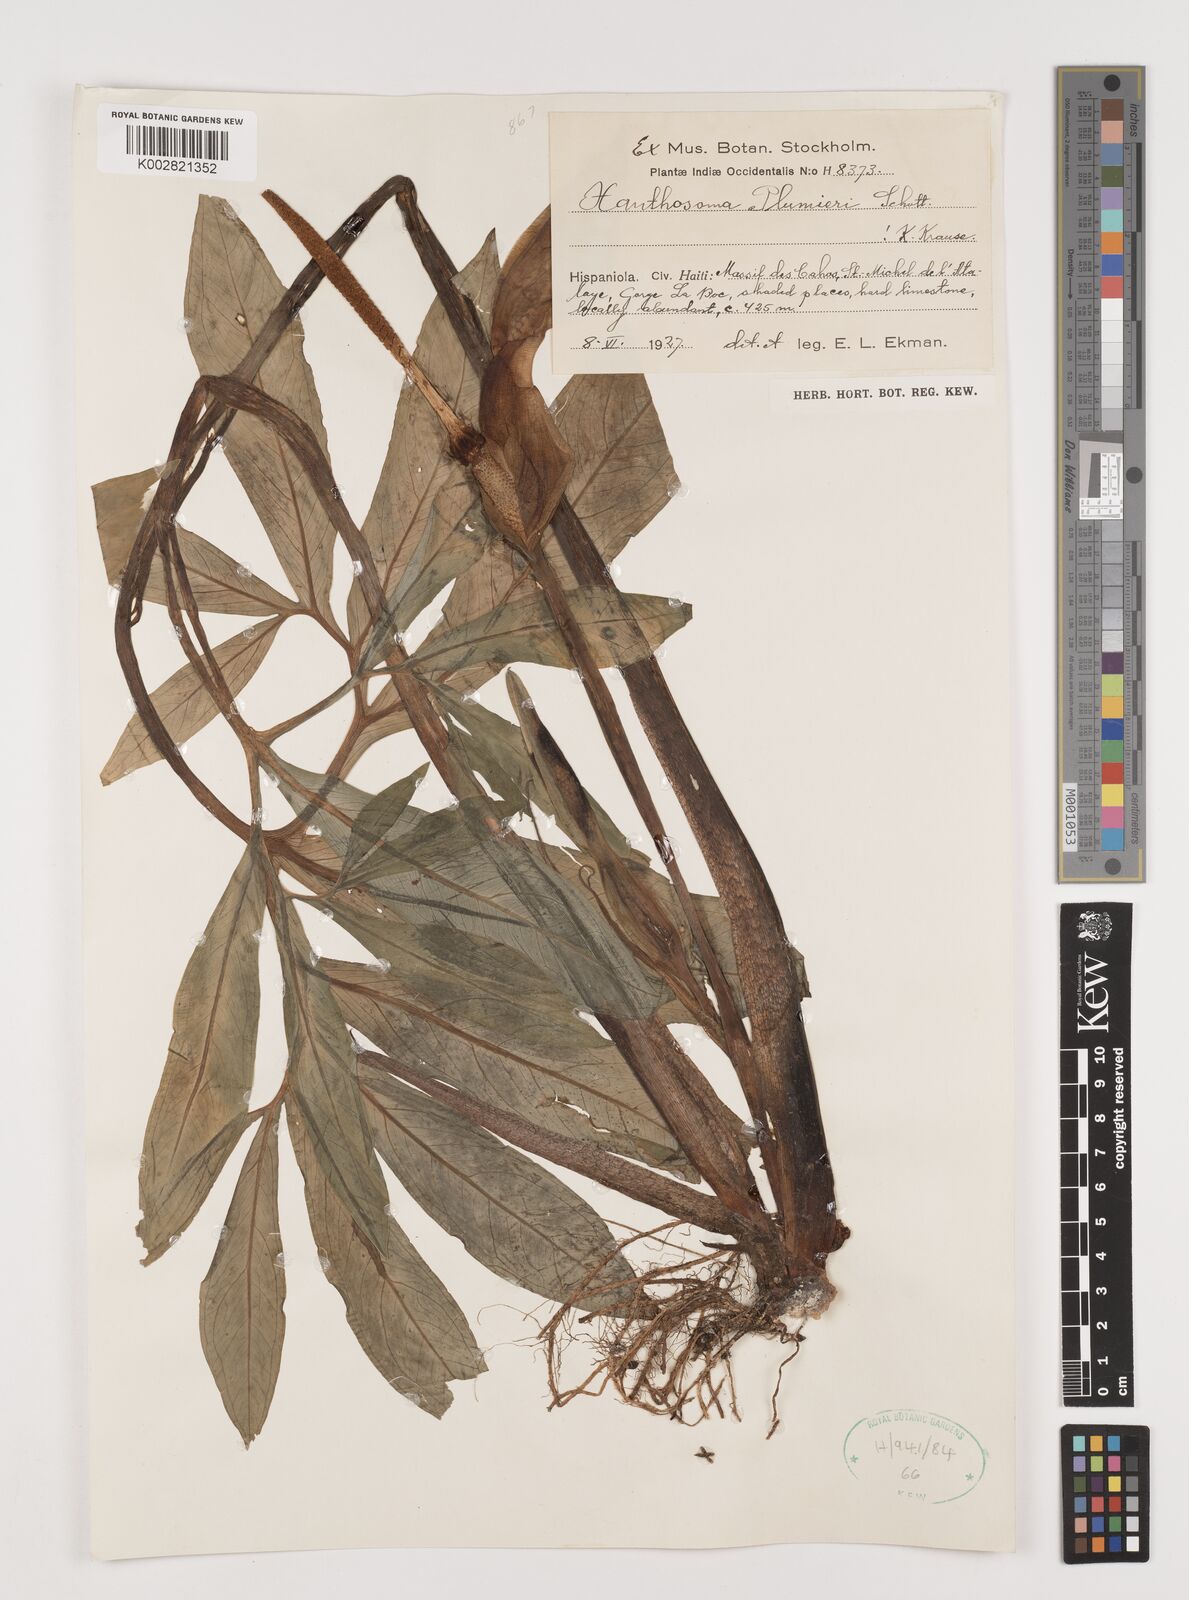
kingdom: Plantae
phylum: Tracheophyta
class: Liliopsida
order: Alismatales
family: Araceae
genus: Xanthosoma
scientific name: Xanthosoma helleborifolium
